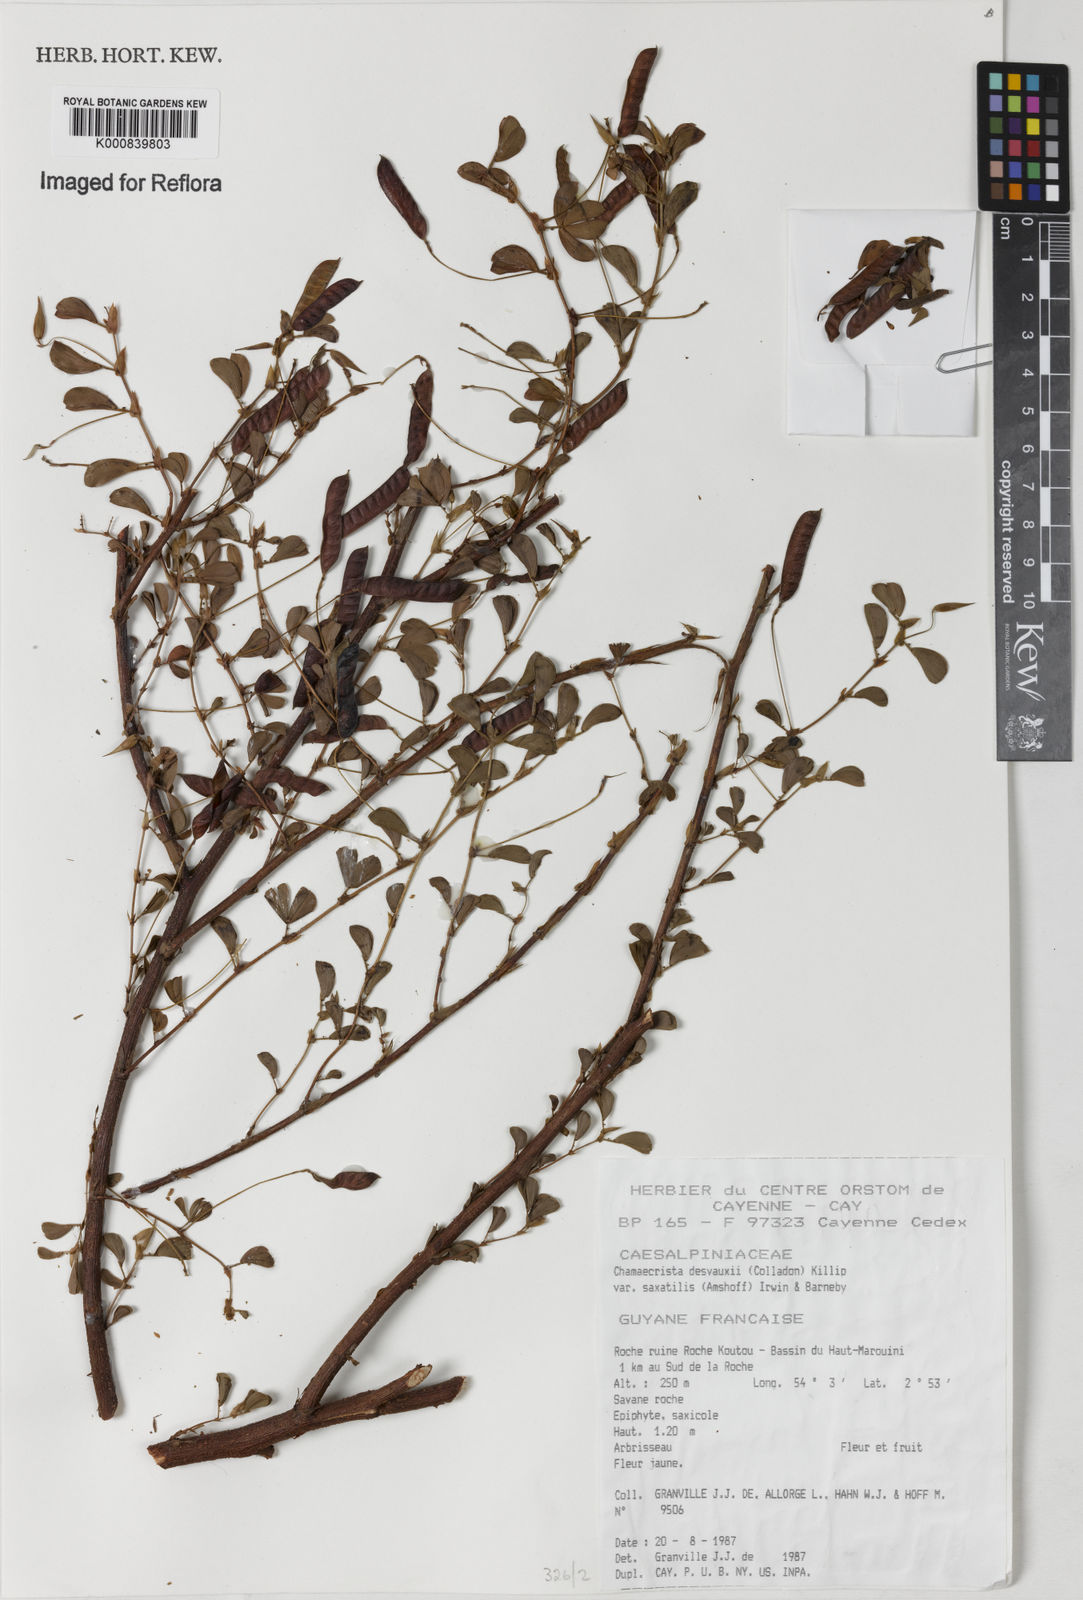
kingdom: Plantae
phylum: Tracheophyta
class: Magnoliopsida
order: Fabales
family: Fabaceae
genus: Chamaecrista
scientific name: Chamaecrista desvauxii
